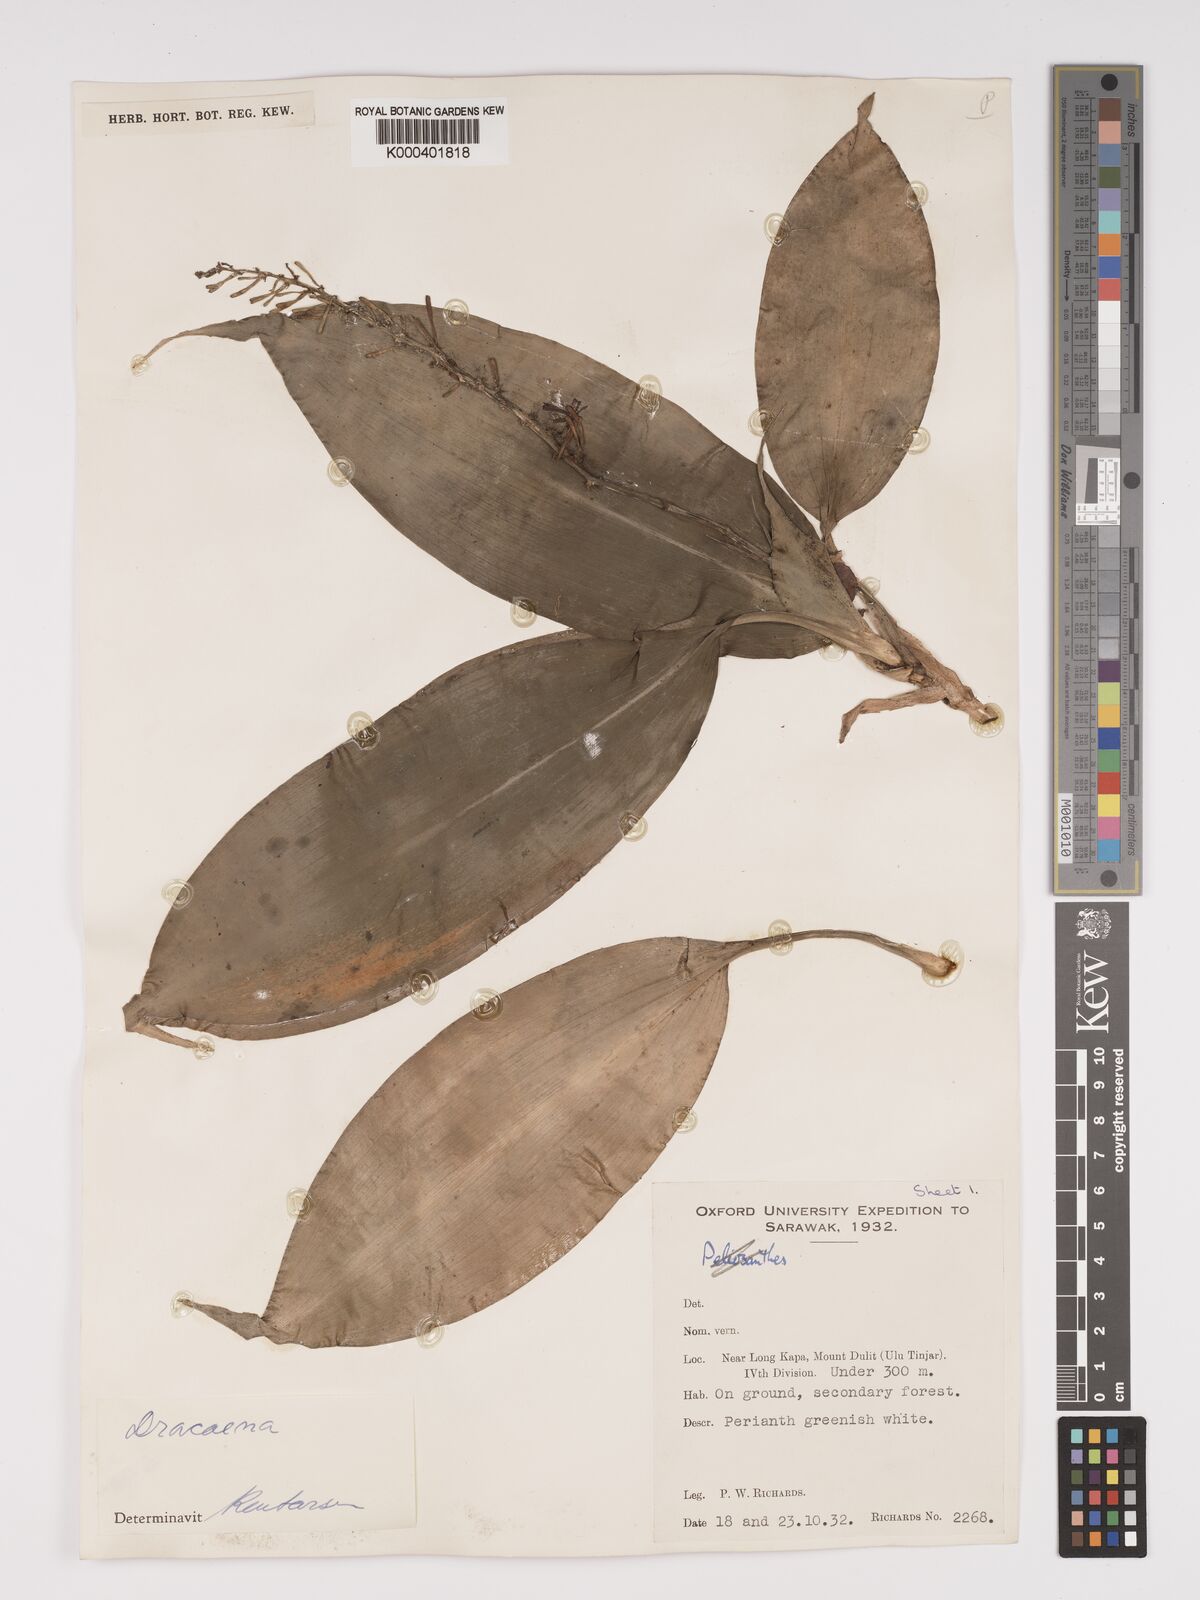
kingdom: Plantae
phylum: Tracheophyta
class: Liliopsida
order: Asparagales
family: Asparagaceae
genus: Dracaena
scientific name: Dracaena
